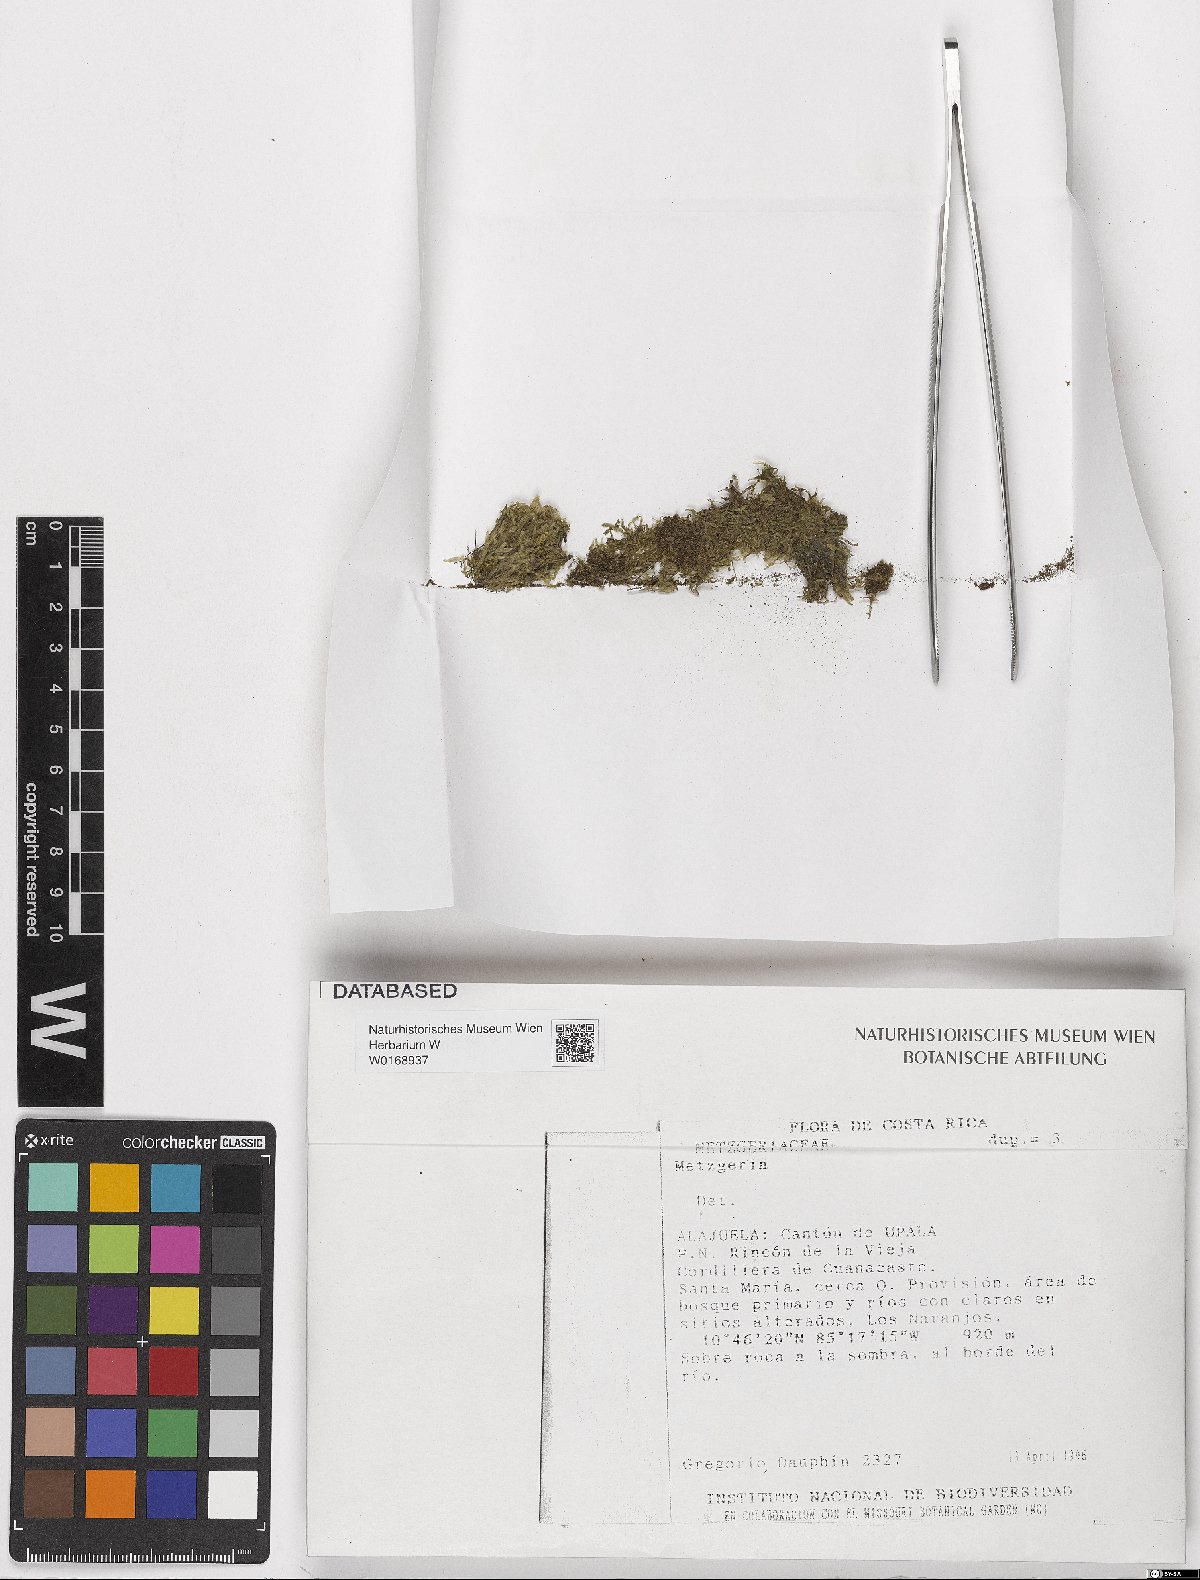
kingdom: Plantae
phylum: Marchantiophyta
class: Jungermanniopsida
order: Metzgeriales
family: Metzgeriaceae
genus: Metzgeria
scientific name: Metzgeria
